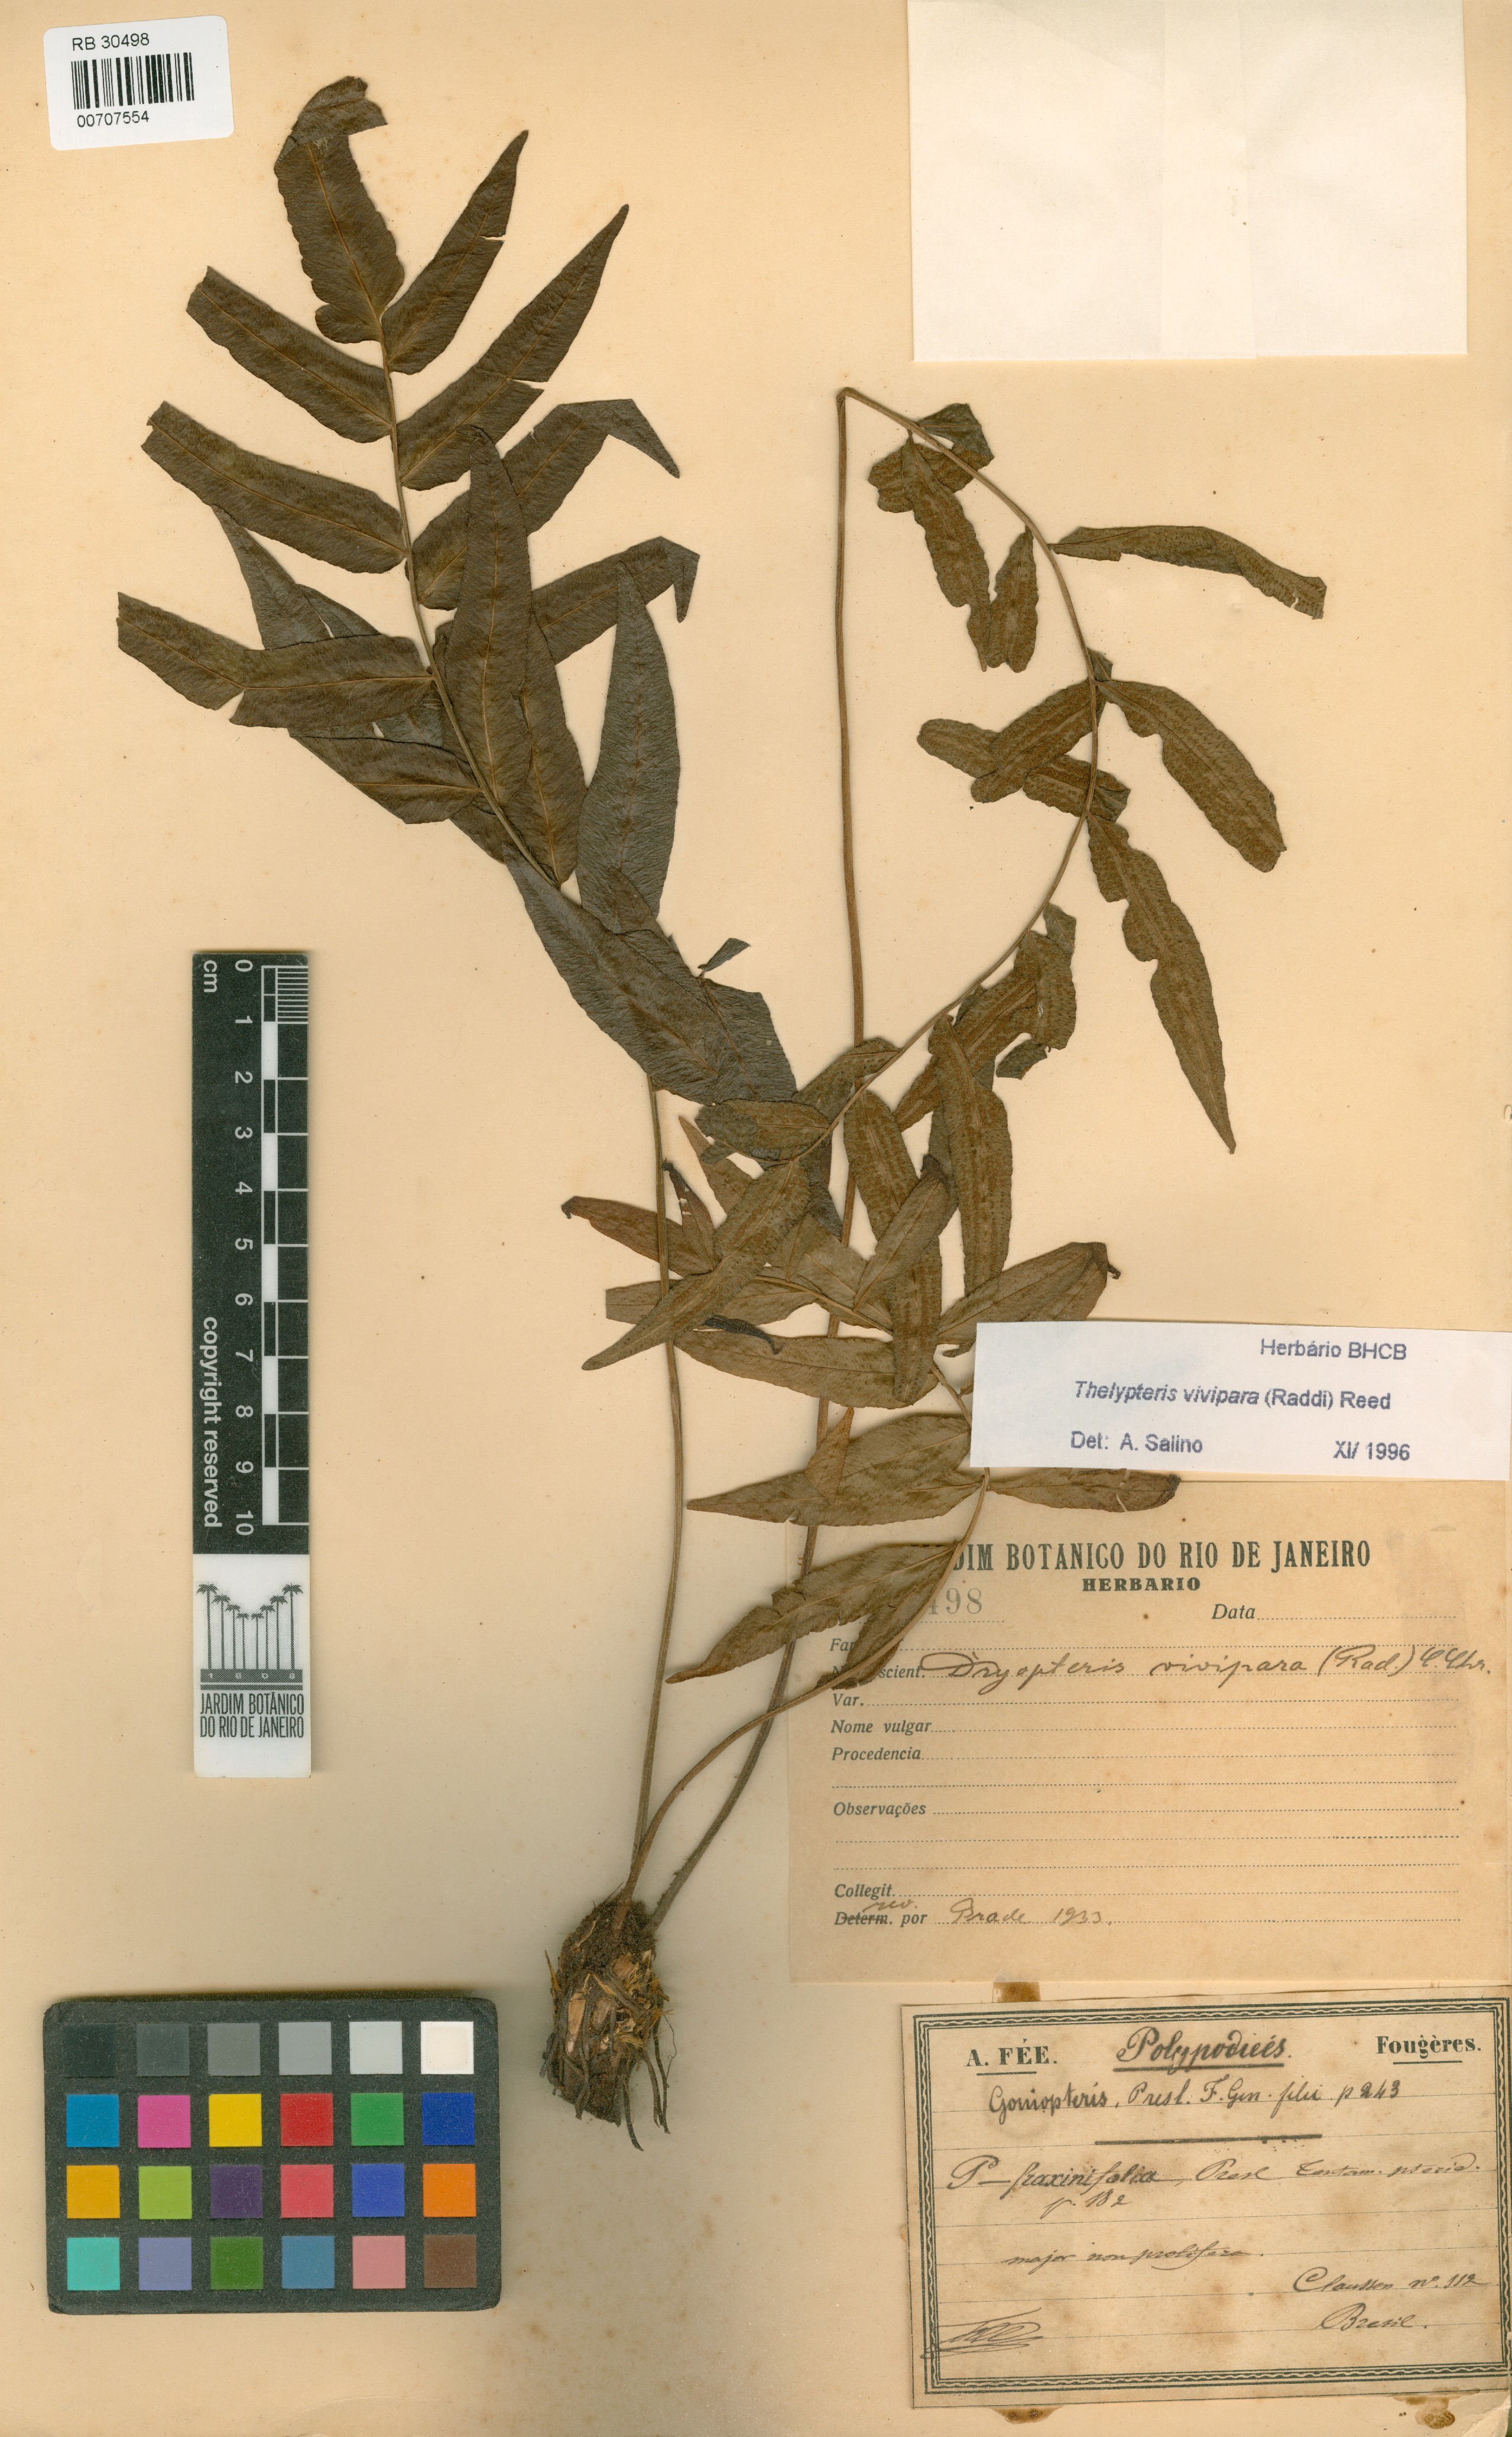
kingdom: Plantae
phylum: Tracheophyta
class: Polypodiopsida
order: Polypodiales
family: Thelypteridaceae
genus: Goniopteris
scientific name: Goniopteris vivipara
